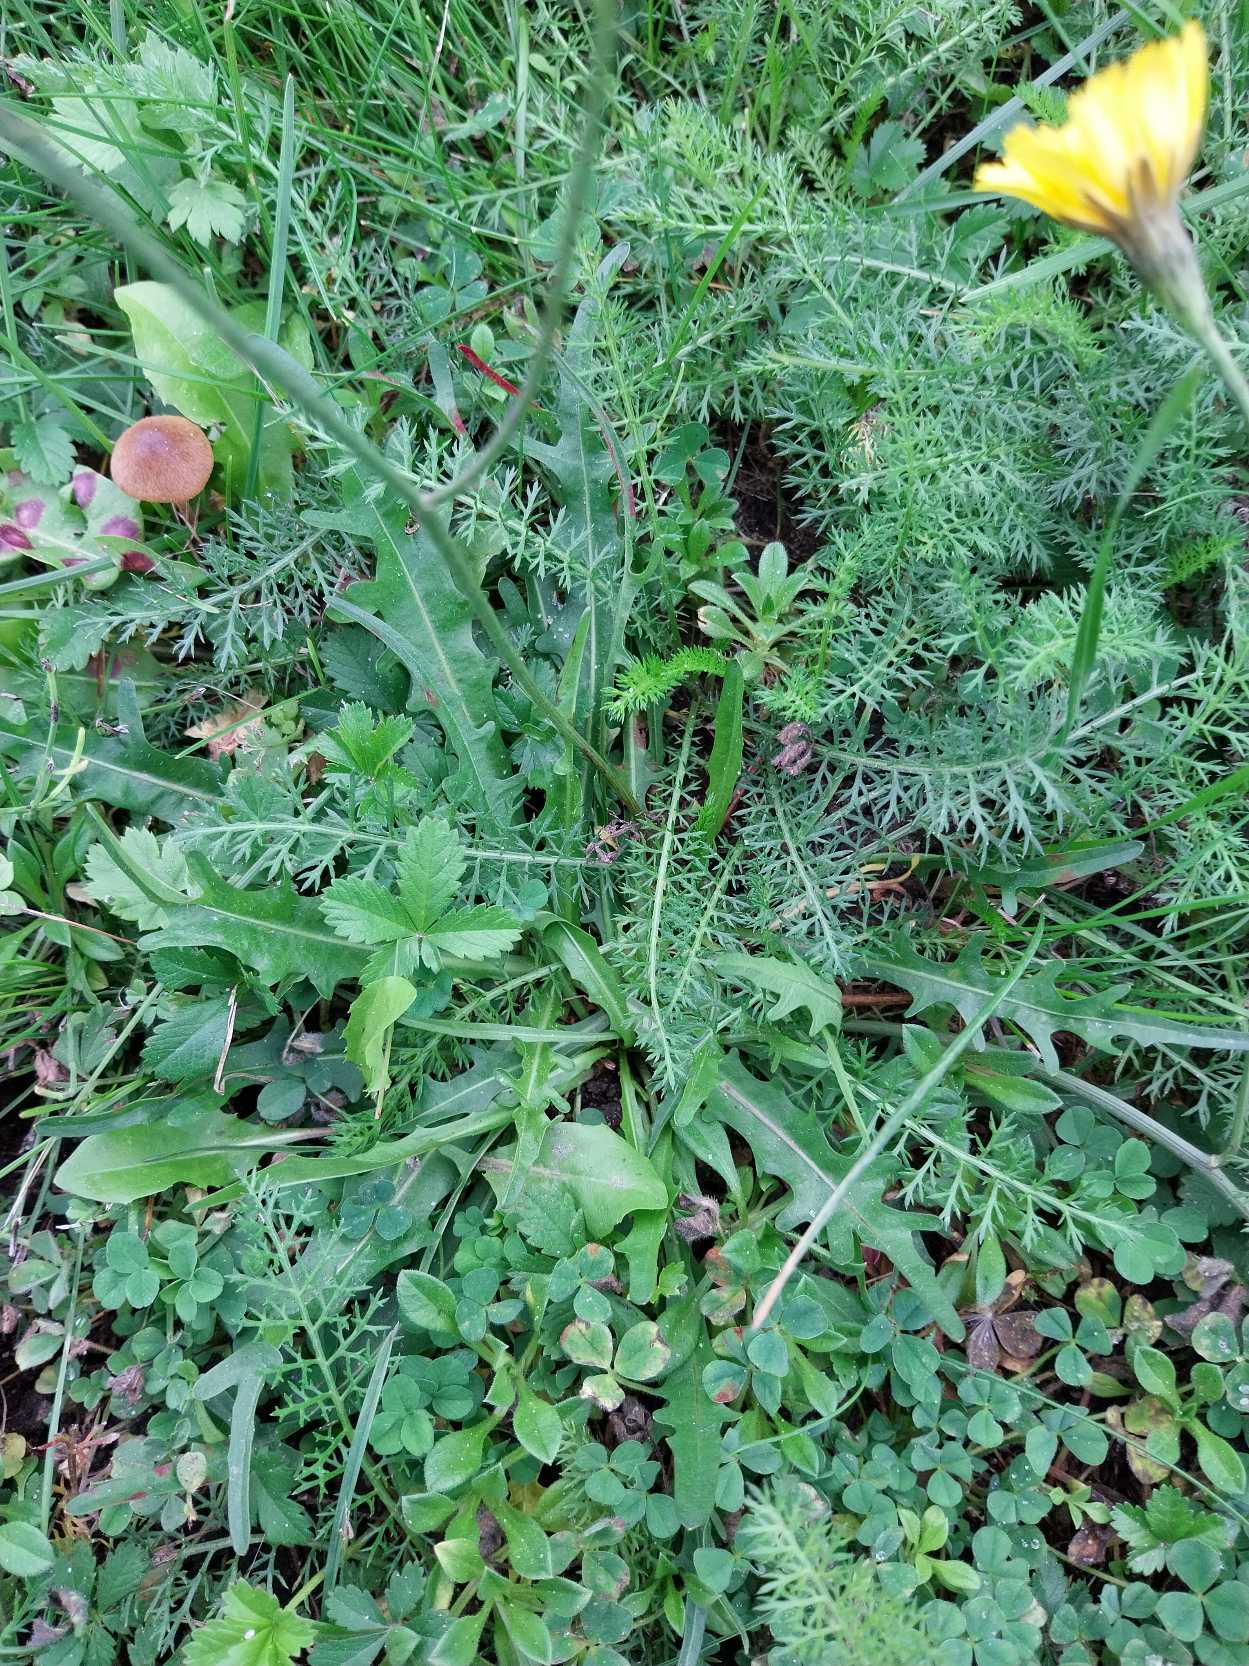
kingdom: Plantae
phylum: Tracheophyta
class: Magnoliopsida
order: Asterales
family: Asteraceae
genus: Scorzoneroides
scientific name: Scorzoneroides autumnalis
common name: Høst-borst
